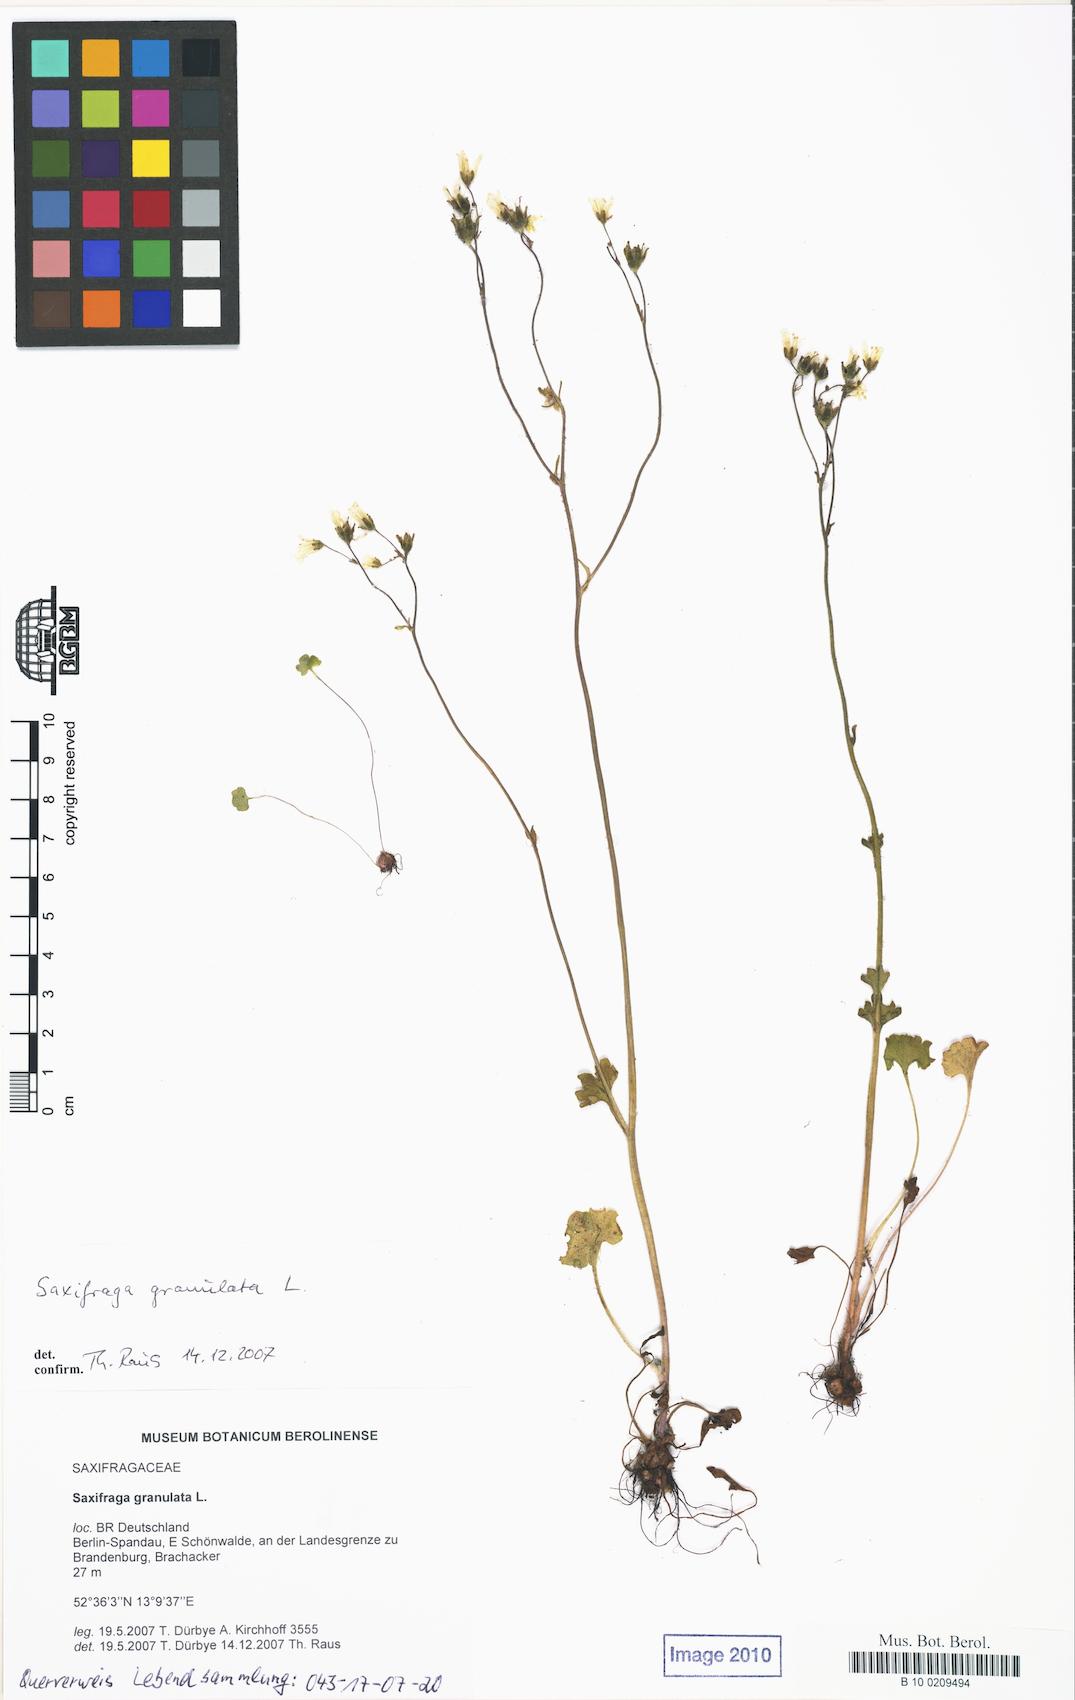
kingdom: Plantae
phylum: Tracheophyta
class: Magnoliopsida
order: Saxifragales
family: Saxifragaceae
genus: Saxifraga
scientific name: Saxifraga granulata
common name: Meadow saxifrage
